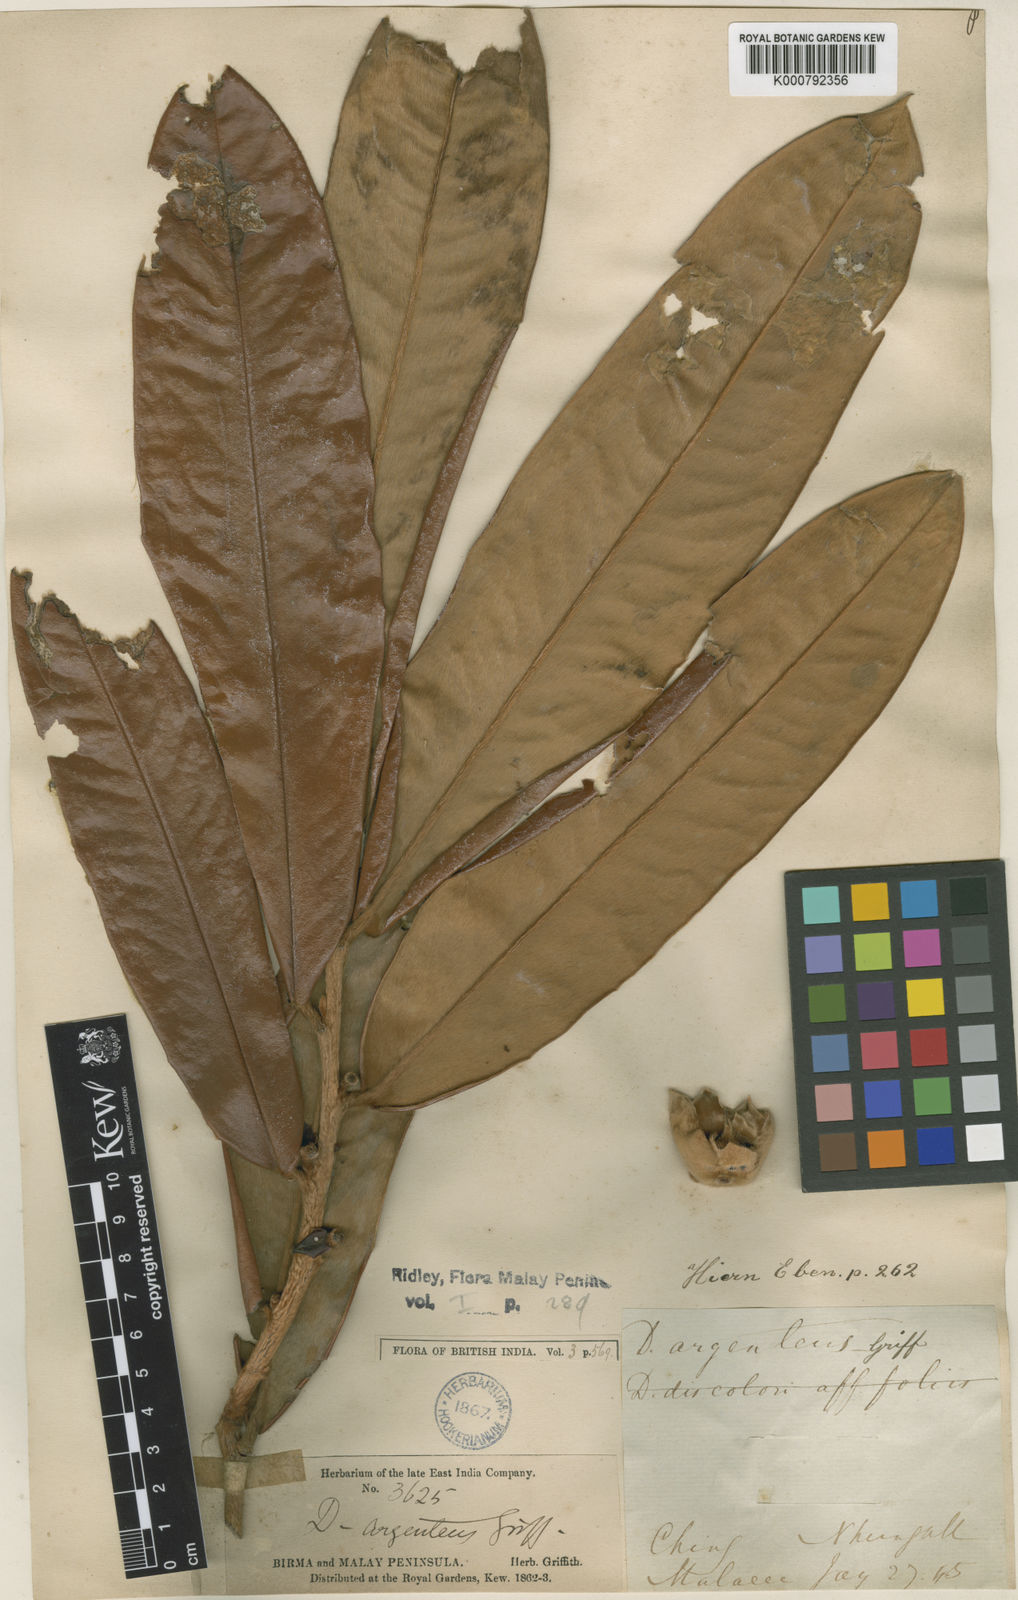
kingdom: Plantae
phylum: Tracheophyta
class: Magnoliopsida
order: Ericales
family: Ebenaceae
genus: Diospyros
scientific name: Diospyros argentea
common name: Silver-leaved ebony
